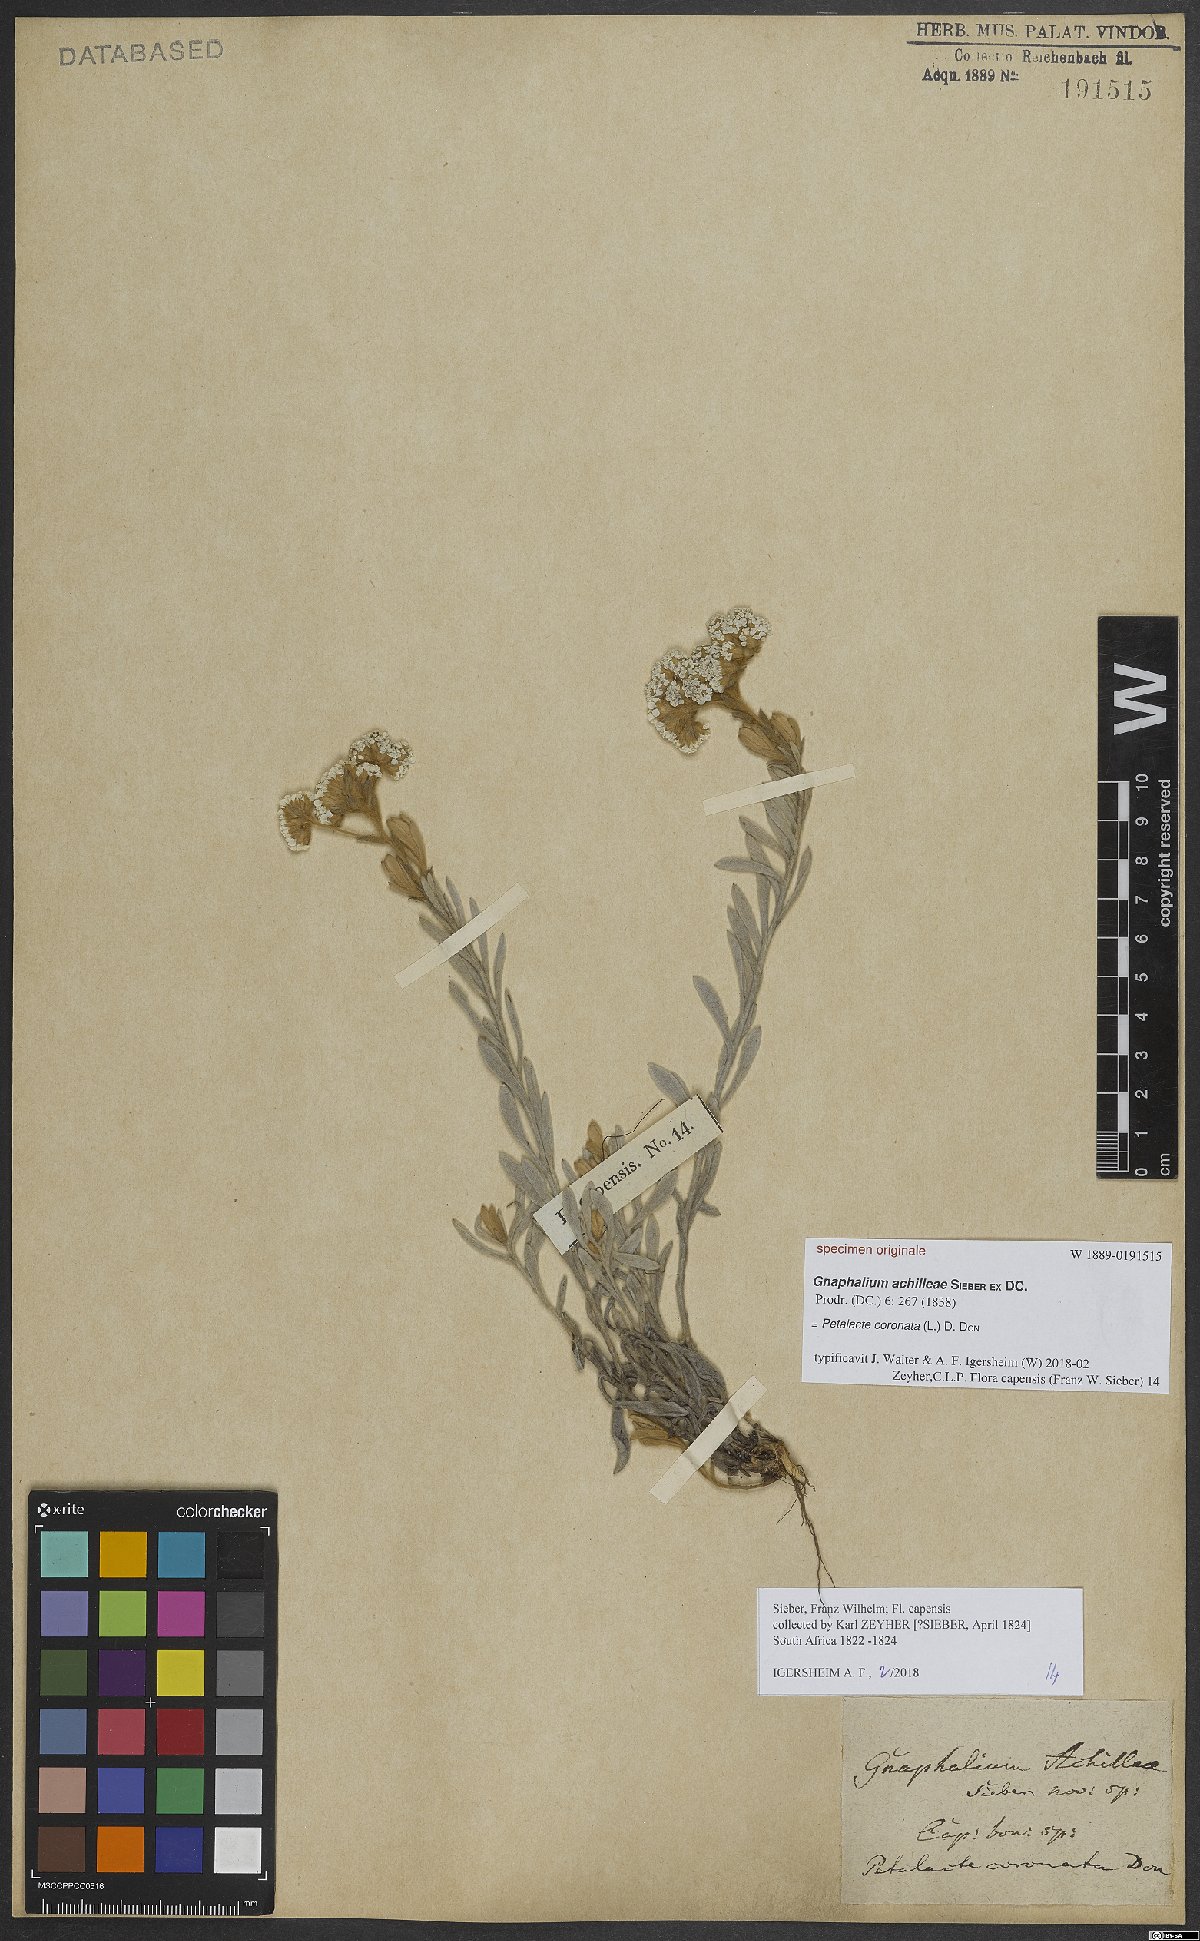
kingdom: Plantae
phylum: Tracheophyta
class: Magnoliopsida
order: Asterales
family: Asteraceae
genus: Petalacte
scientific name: Petalacte coronata
